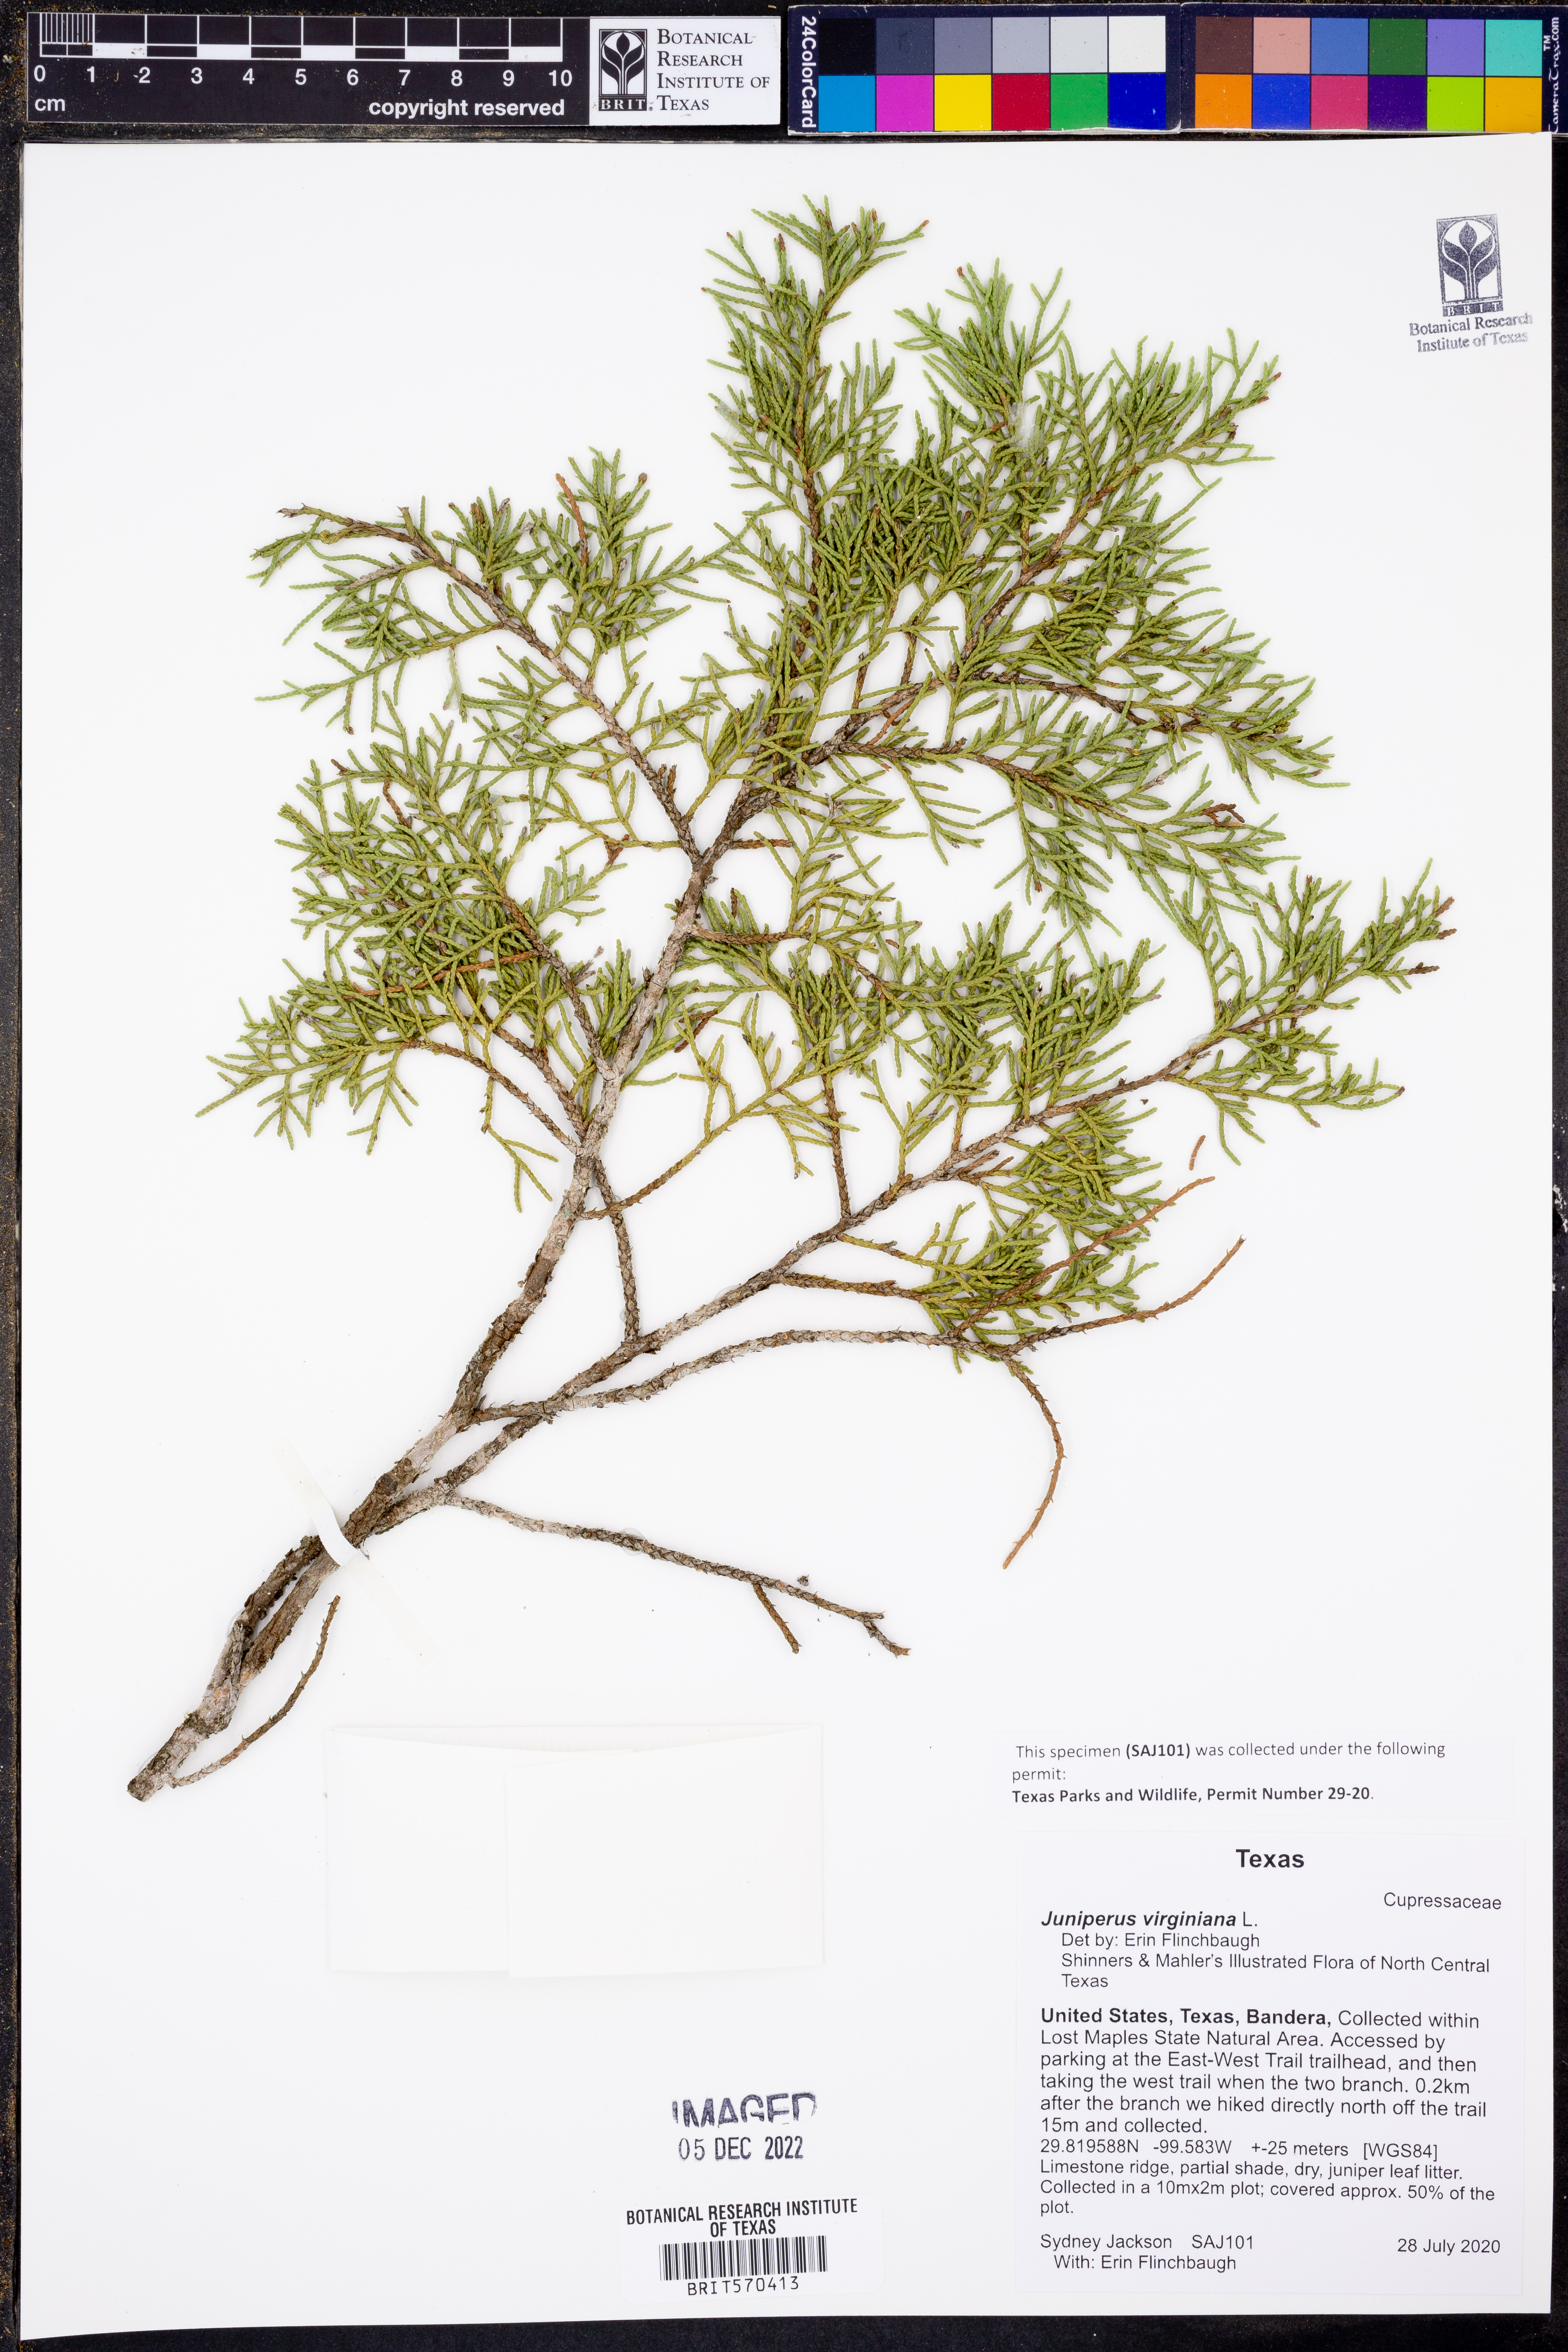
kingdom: Plantae
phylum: Tracheophyta
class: Pinopsida
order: Pinales
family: Cupressaceae
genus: Juniperus
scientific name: Juniperus virginiana
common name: Red juniper
